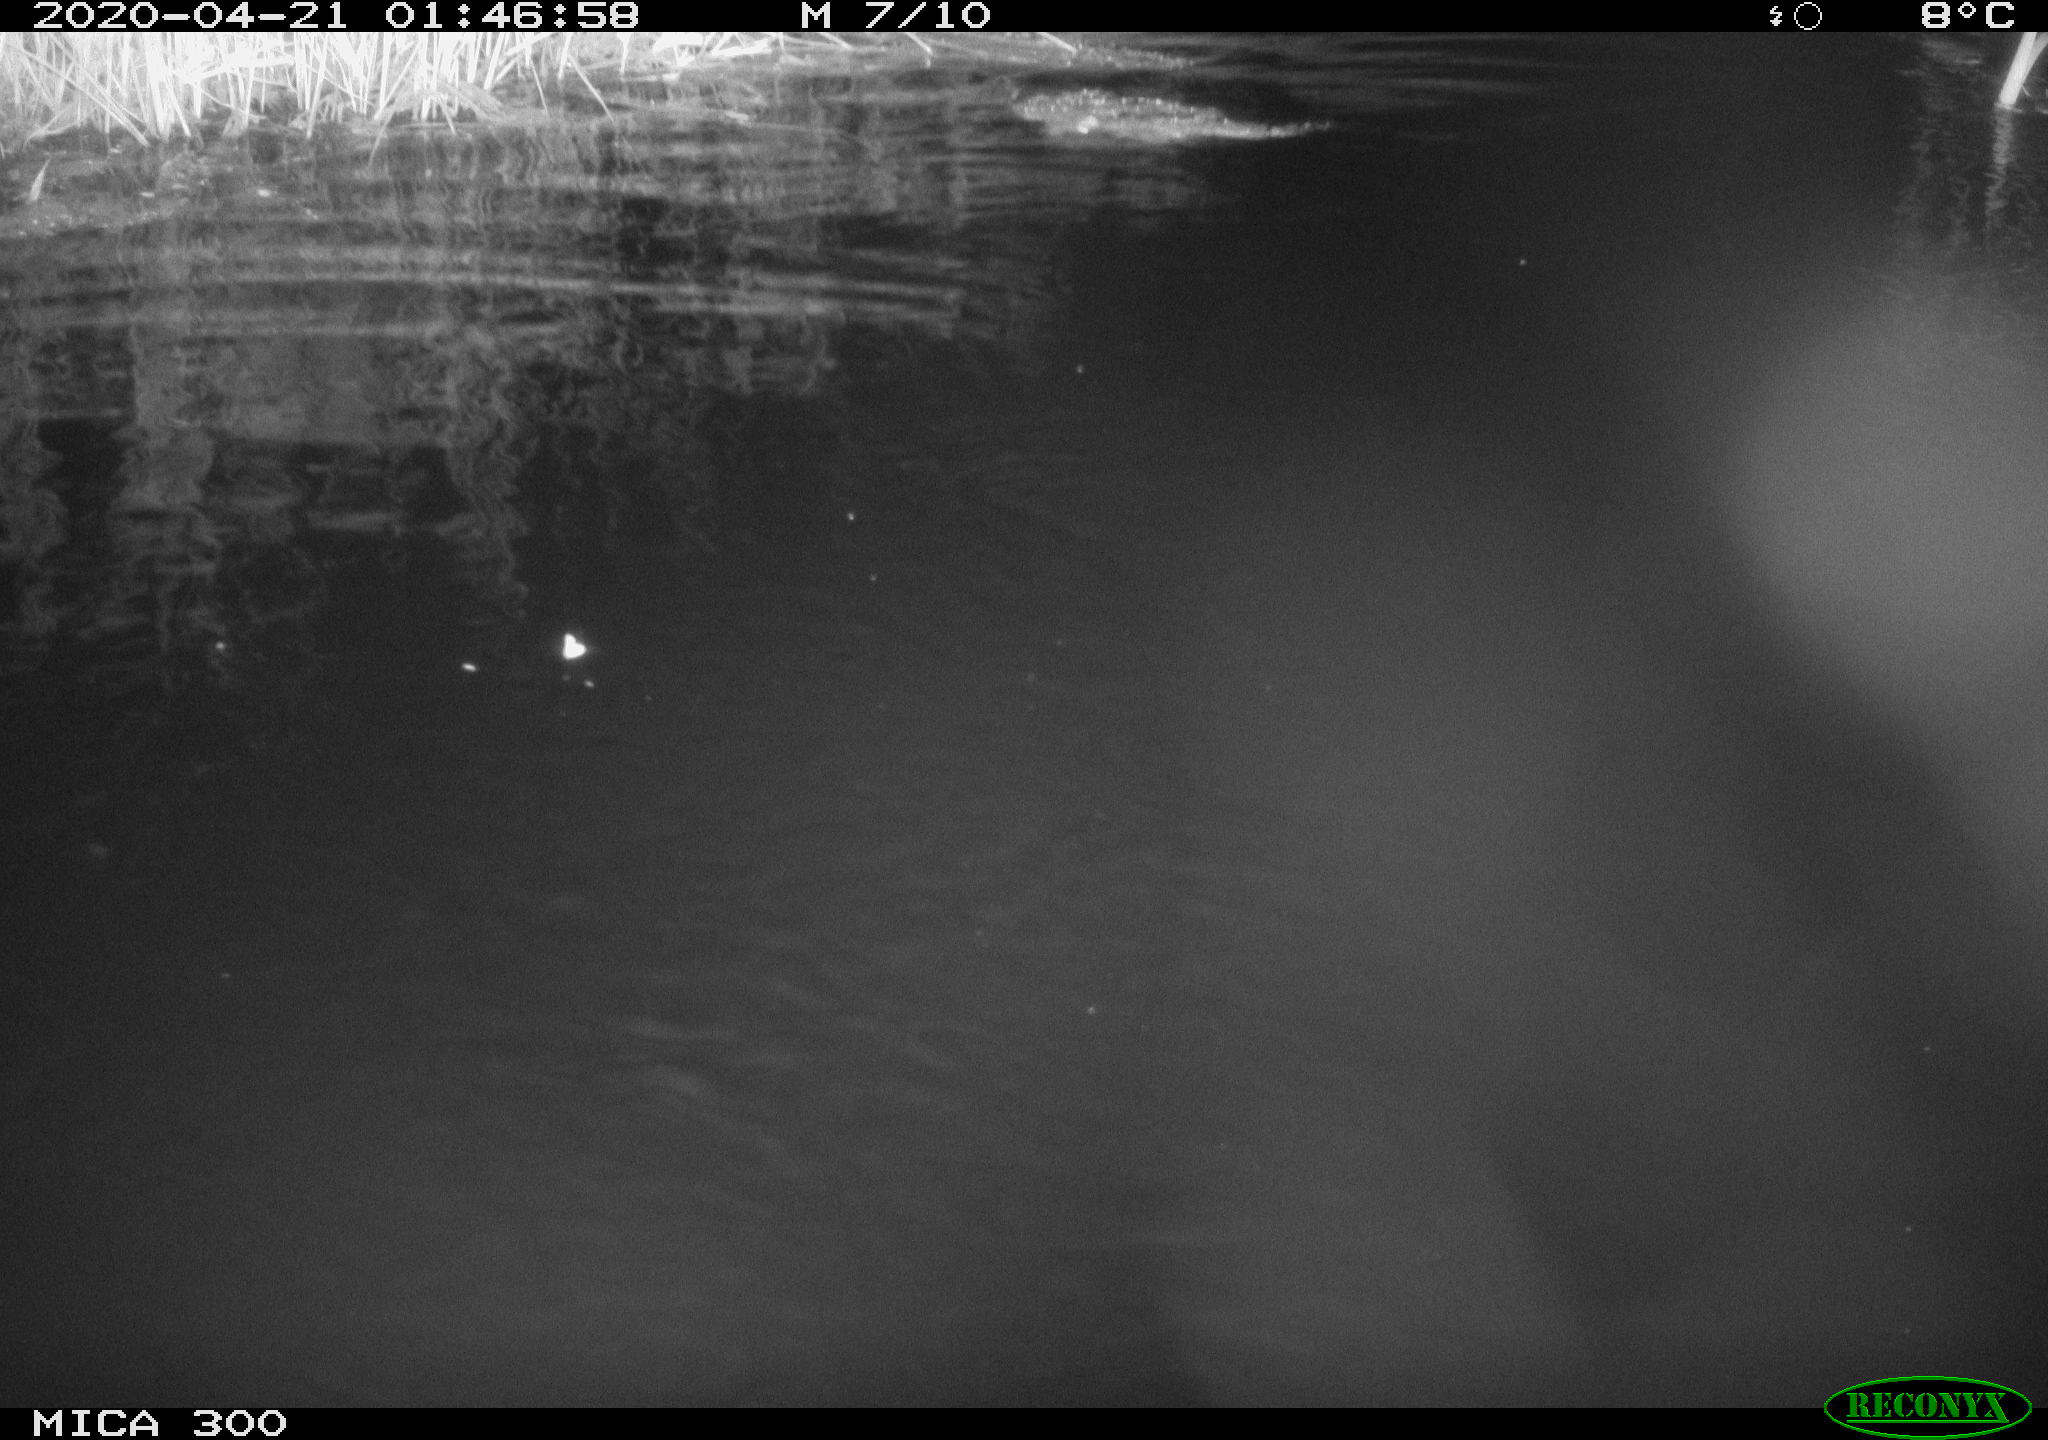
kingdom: Animalia
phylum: Chordata
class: Mammalia
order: Rodentia
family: Castoridae
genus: Castor
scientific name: Castor fiber
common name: Eurasian beaver
